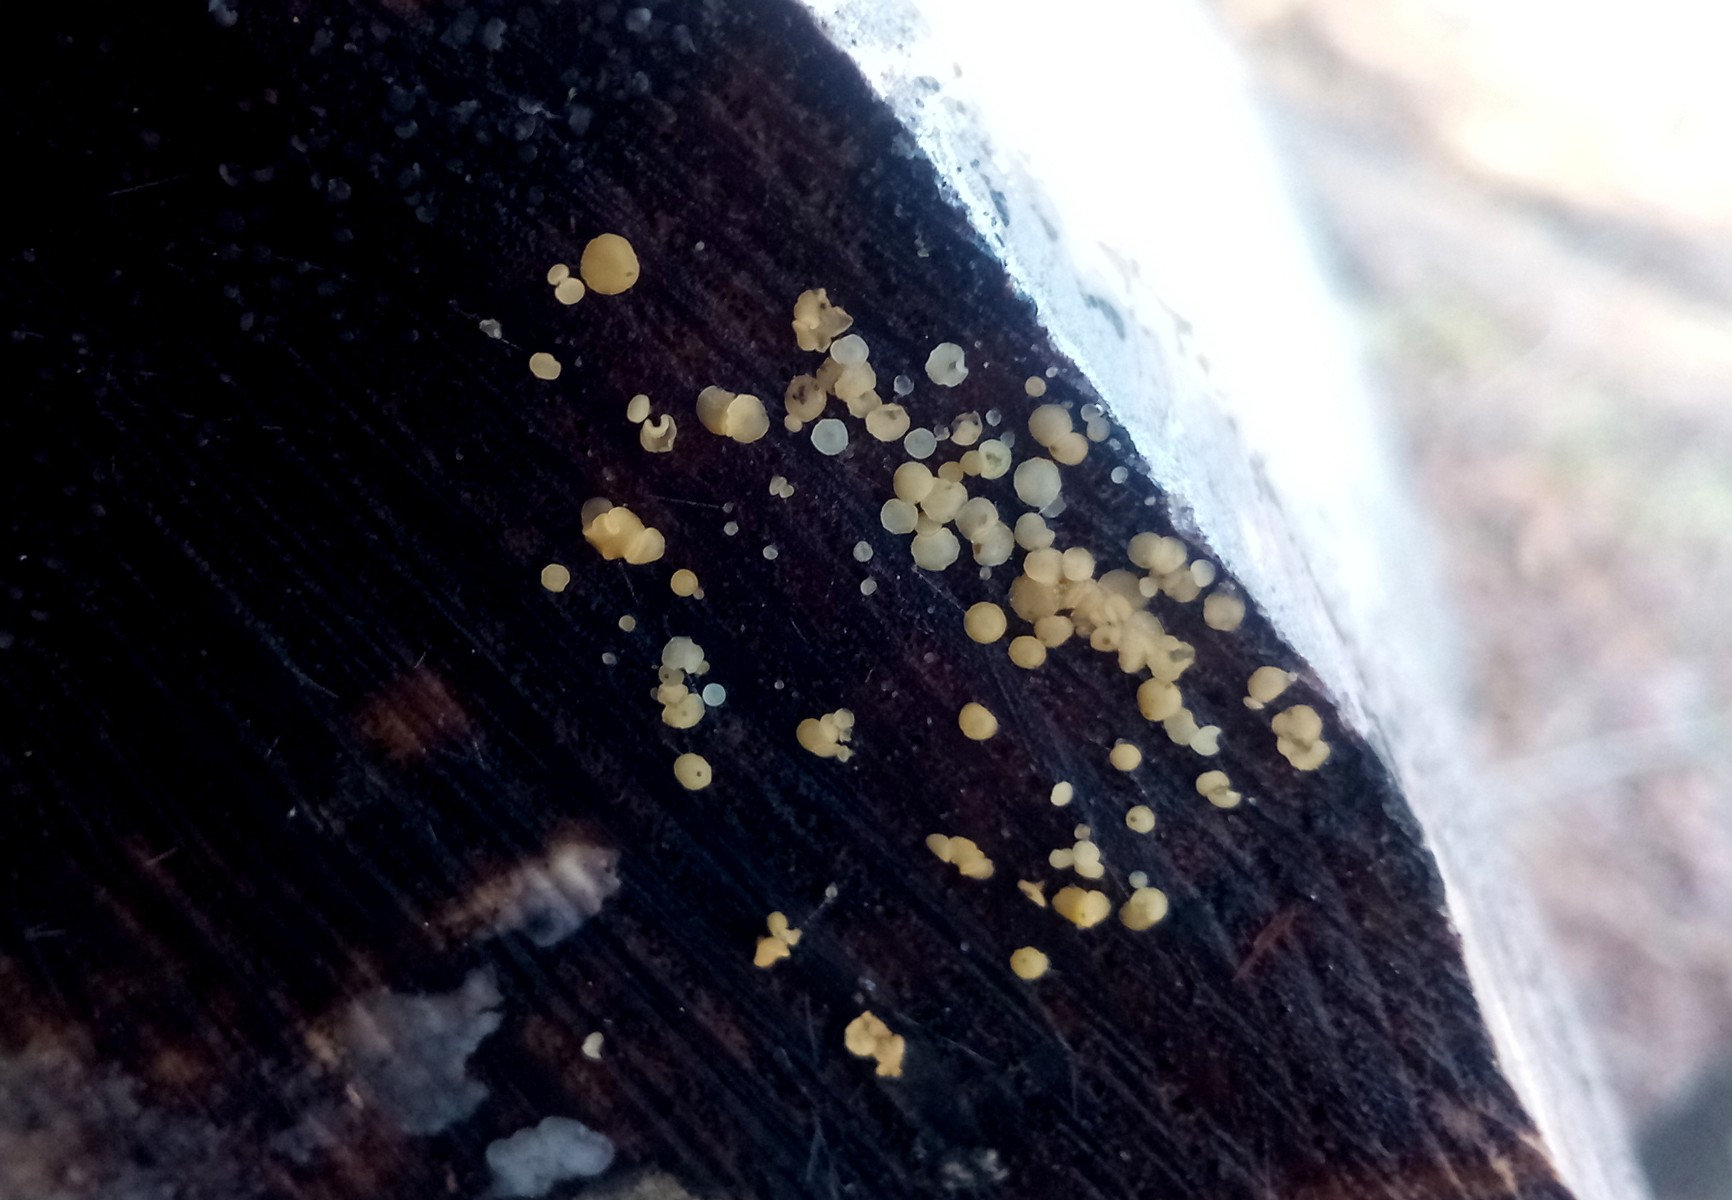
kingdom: Fungi
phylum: Ascomycota
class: Leotiomycetes
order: Helotiales
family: Helotiaceae
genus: Bispora
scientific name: Bispora pallescens
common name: måtte-snitskive
